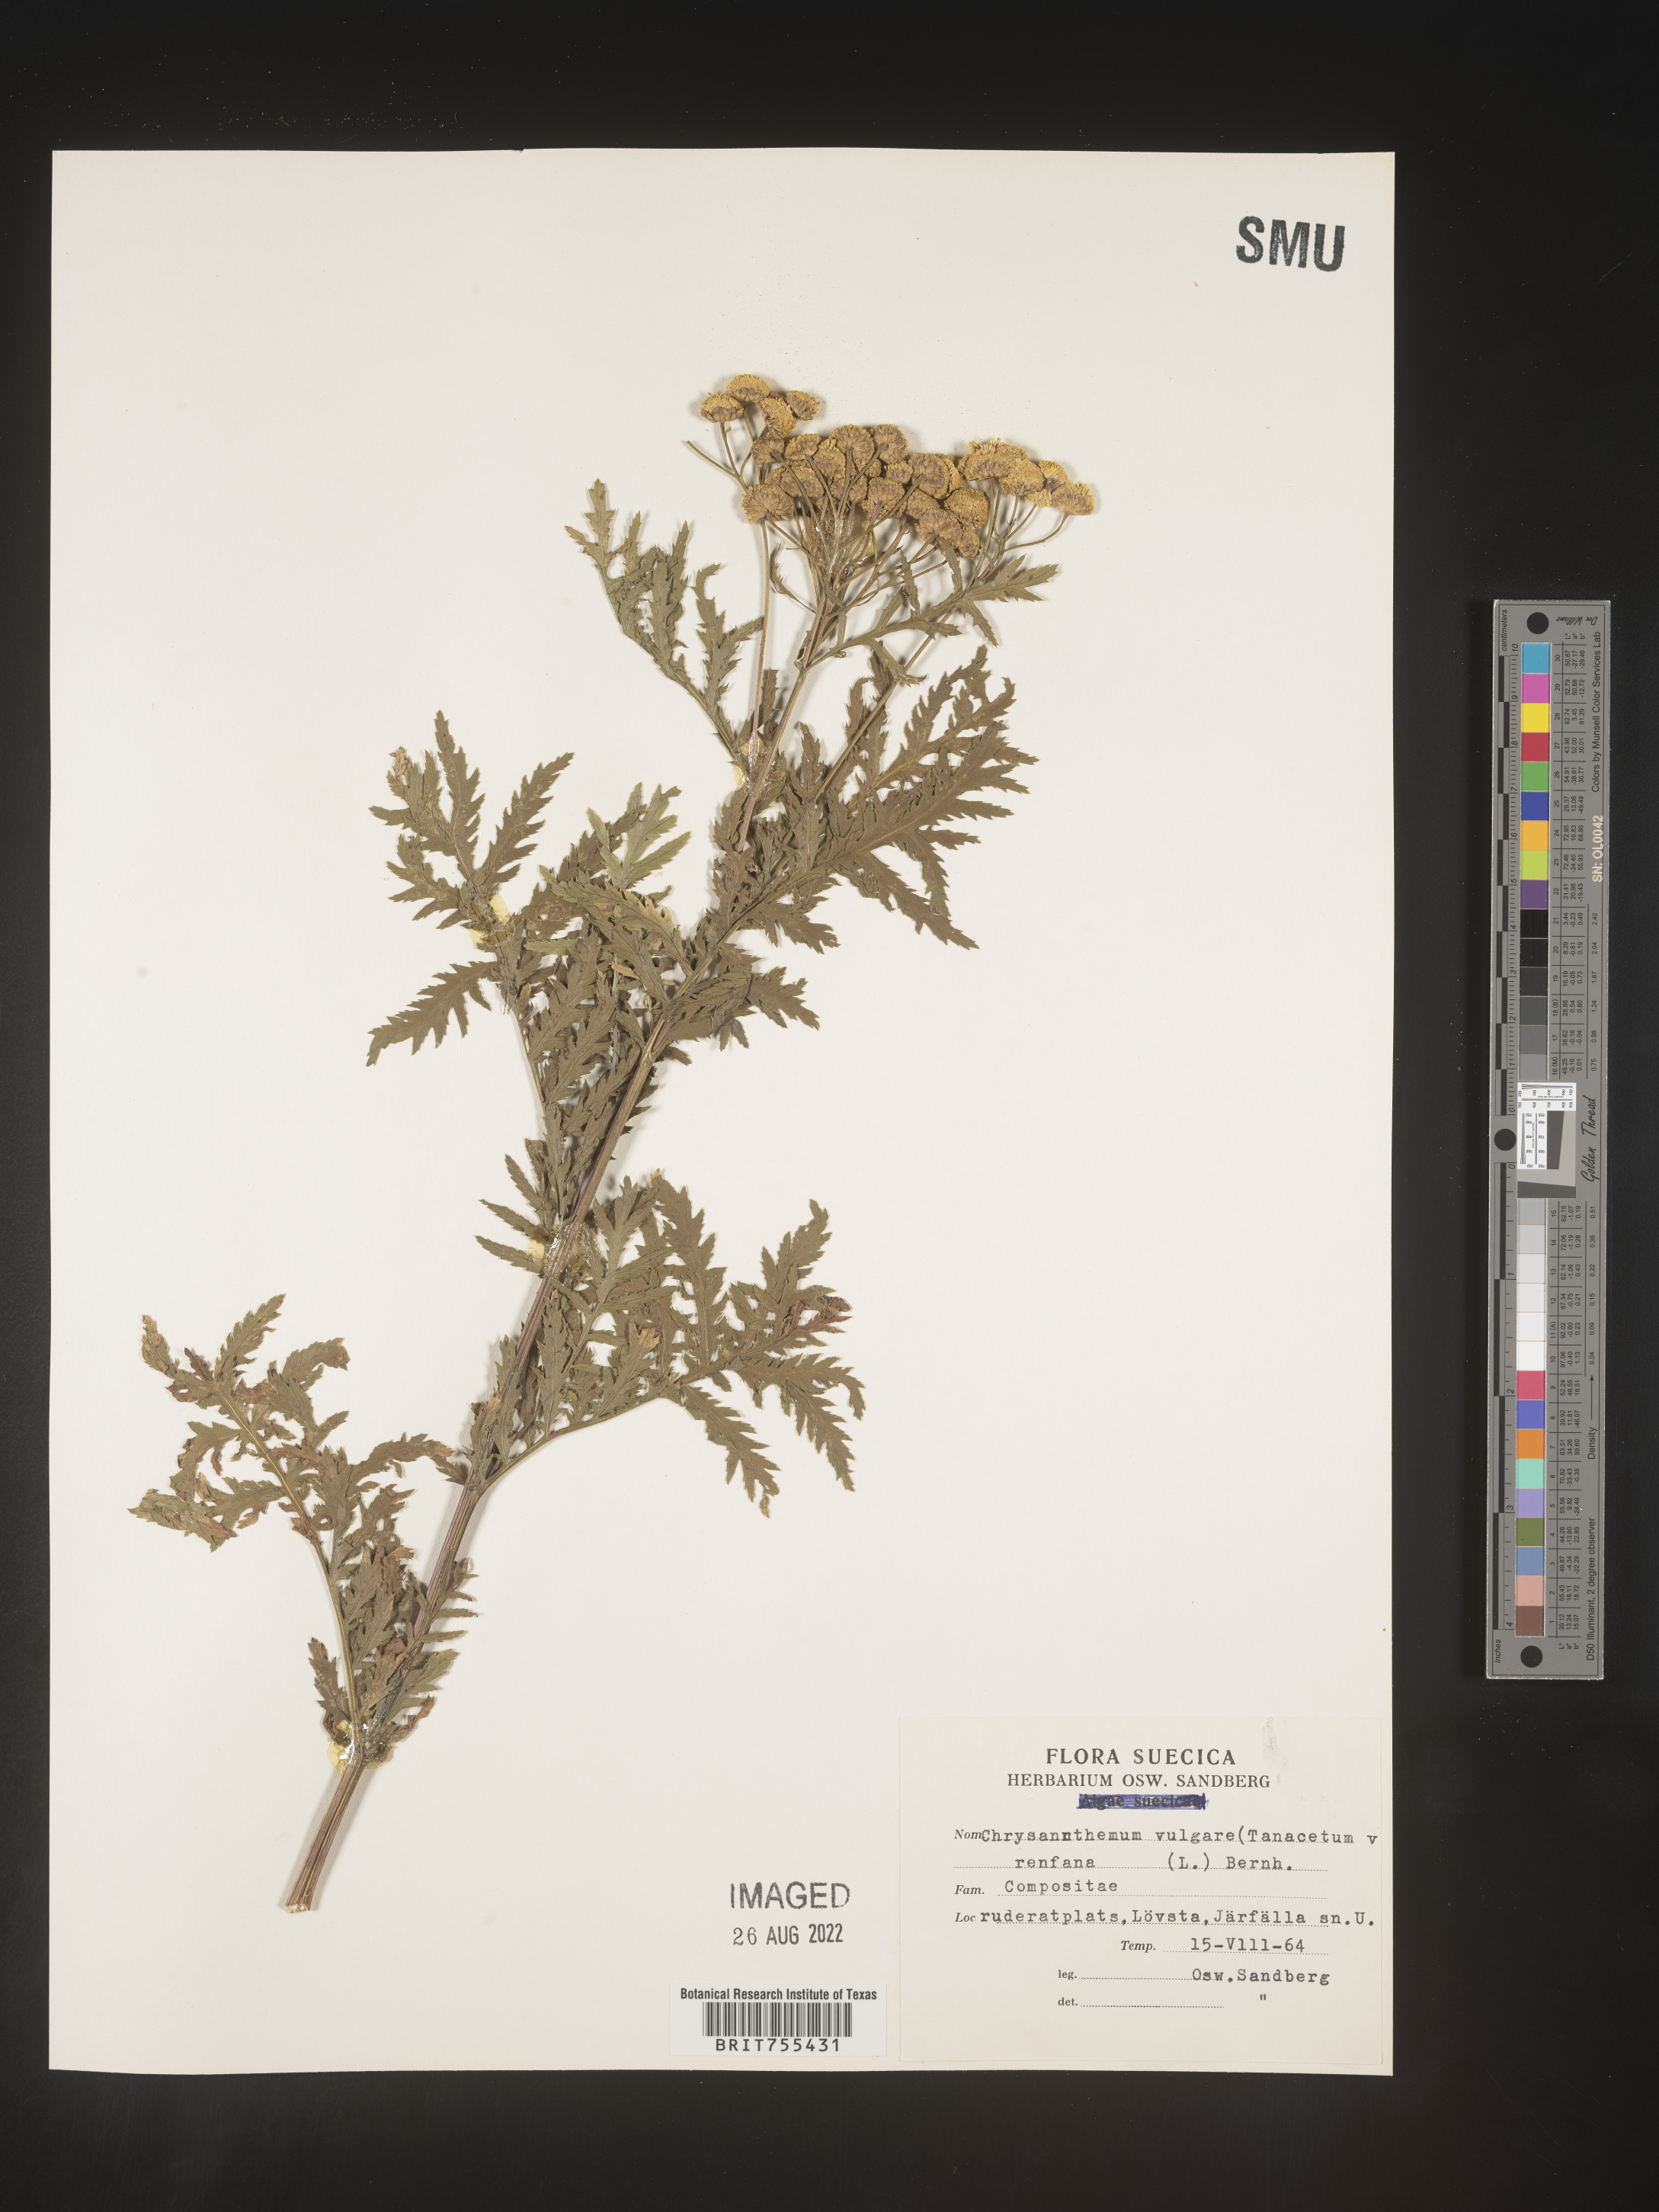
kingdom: Plantae
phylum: Tracheophyta
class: Magnoliopsida
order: Asterales
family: Asteraceae
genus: Tanacetum
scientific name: Tanacetum
